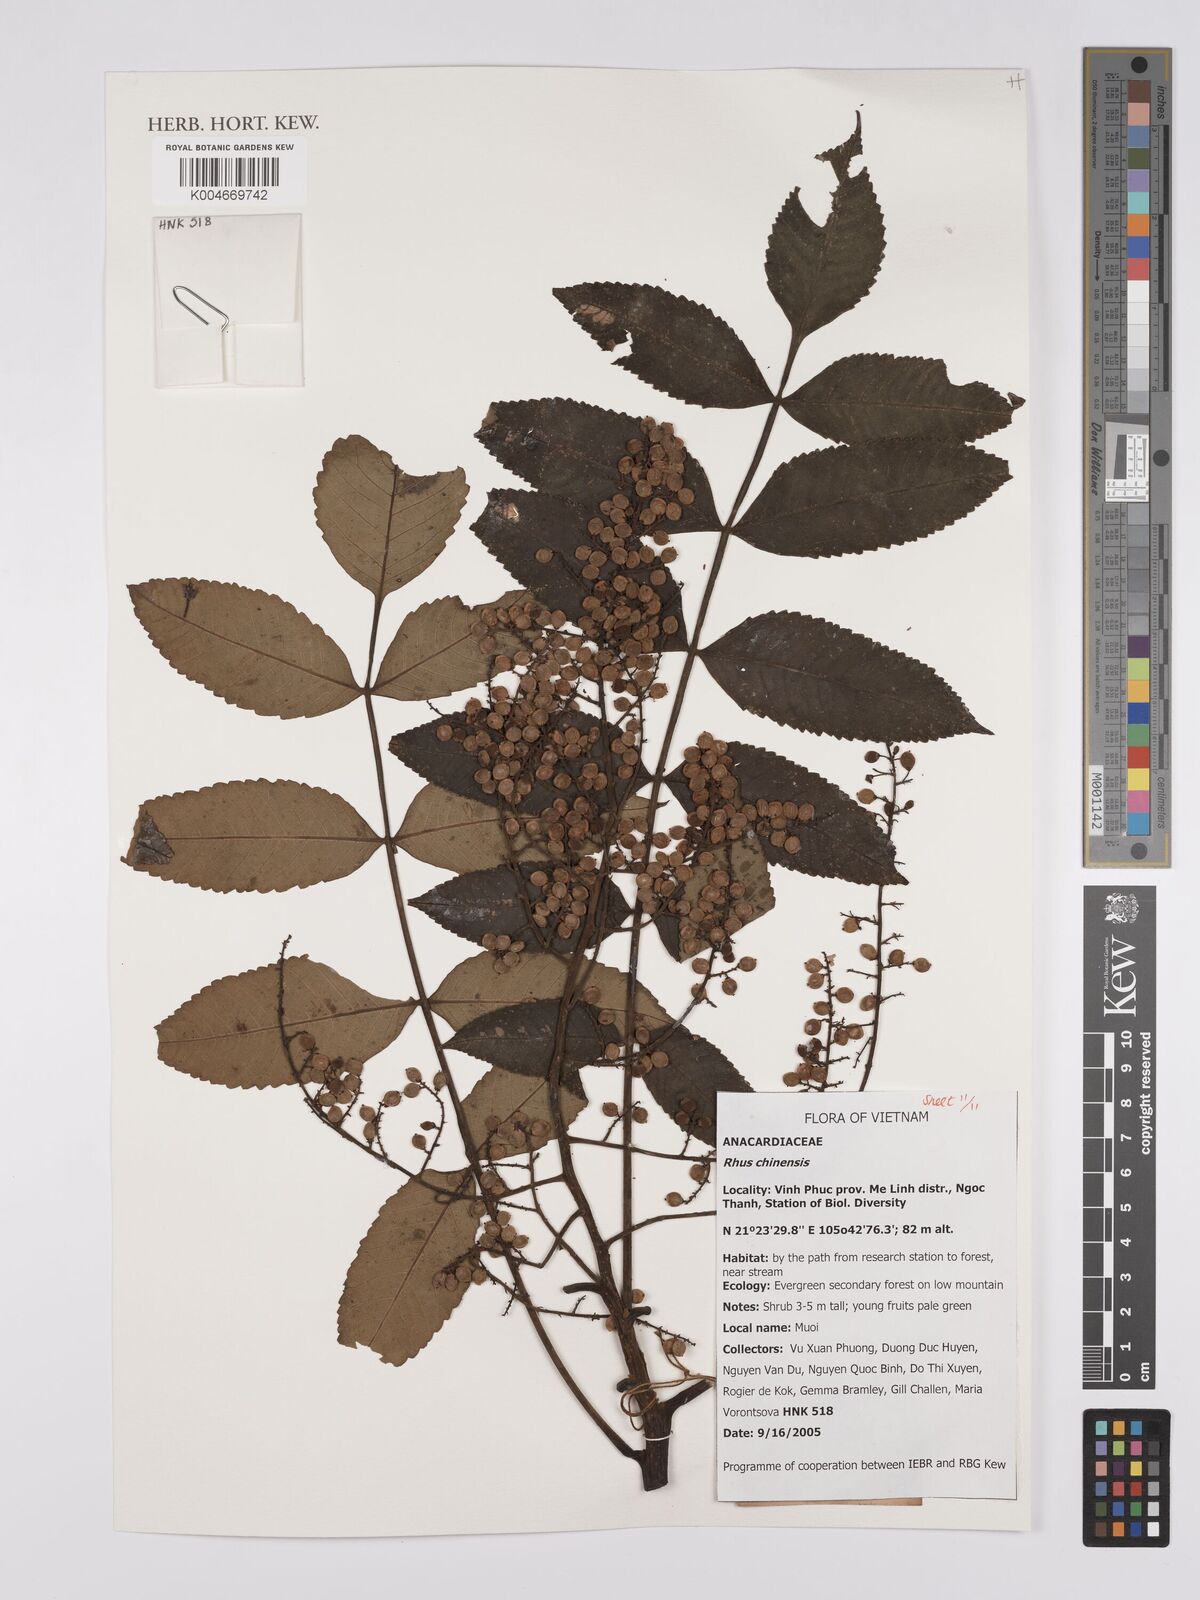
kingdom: Plantae
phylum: Tracheophyta
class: Magnoliopsida
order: Sapindales
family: Anacardiaceae
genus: Rhus
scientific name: Rhus chinensis
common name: Chinese gall
